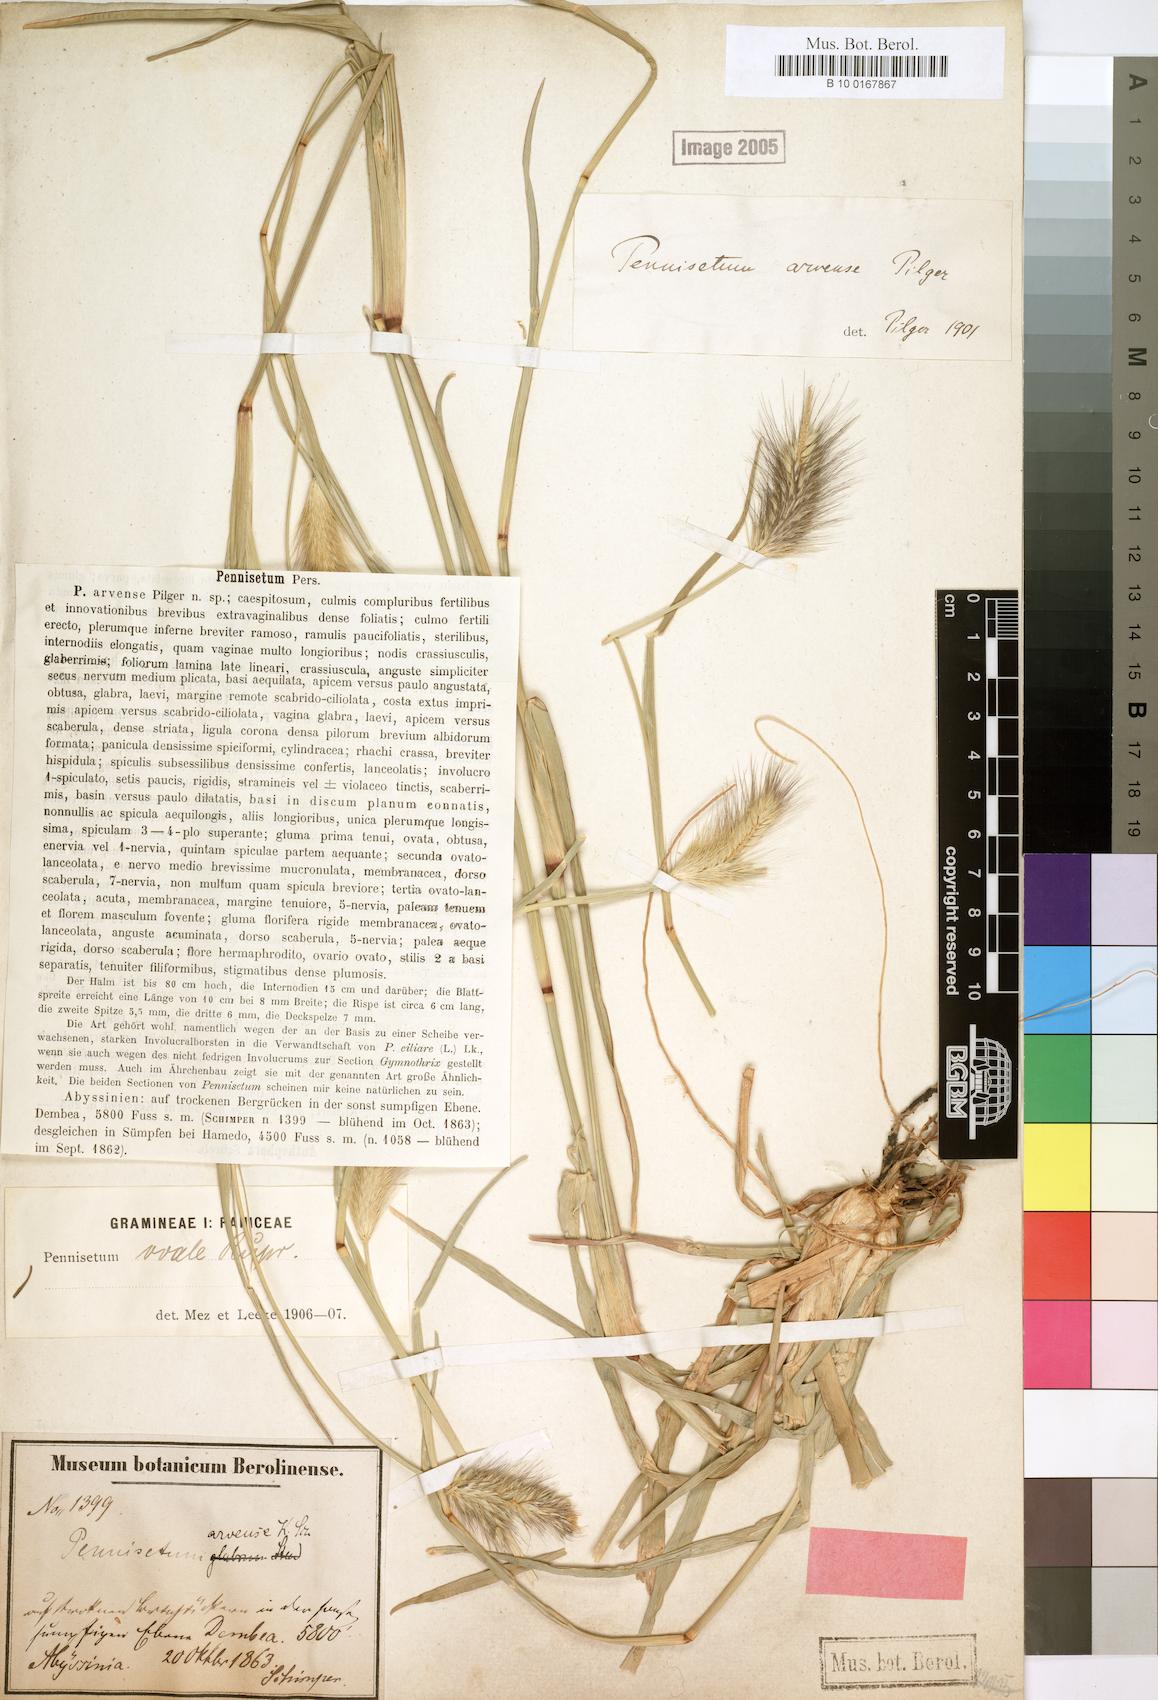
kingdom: Plantae
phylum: Tracheophyta
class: Liliopsida
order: Poales
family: Poaceae
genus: Cenchrus
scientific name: Cenchrus ramosus
